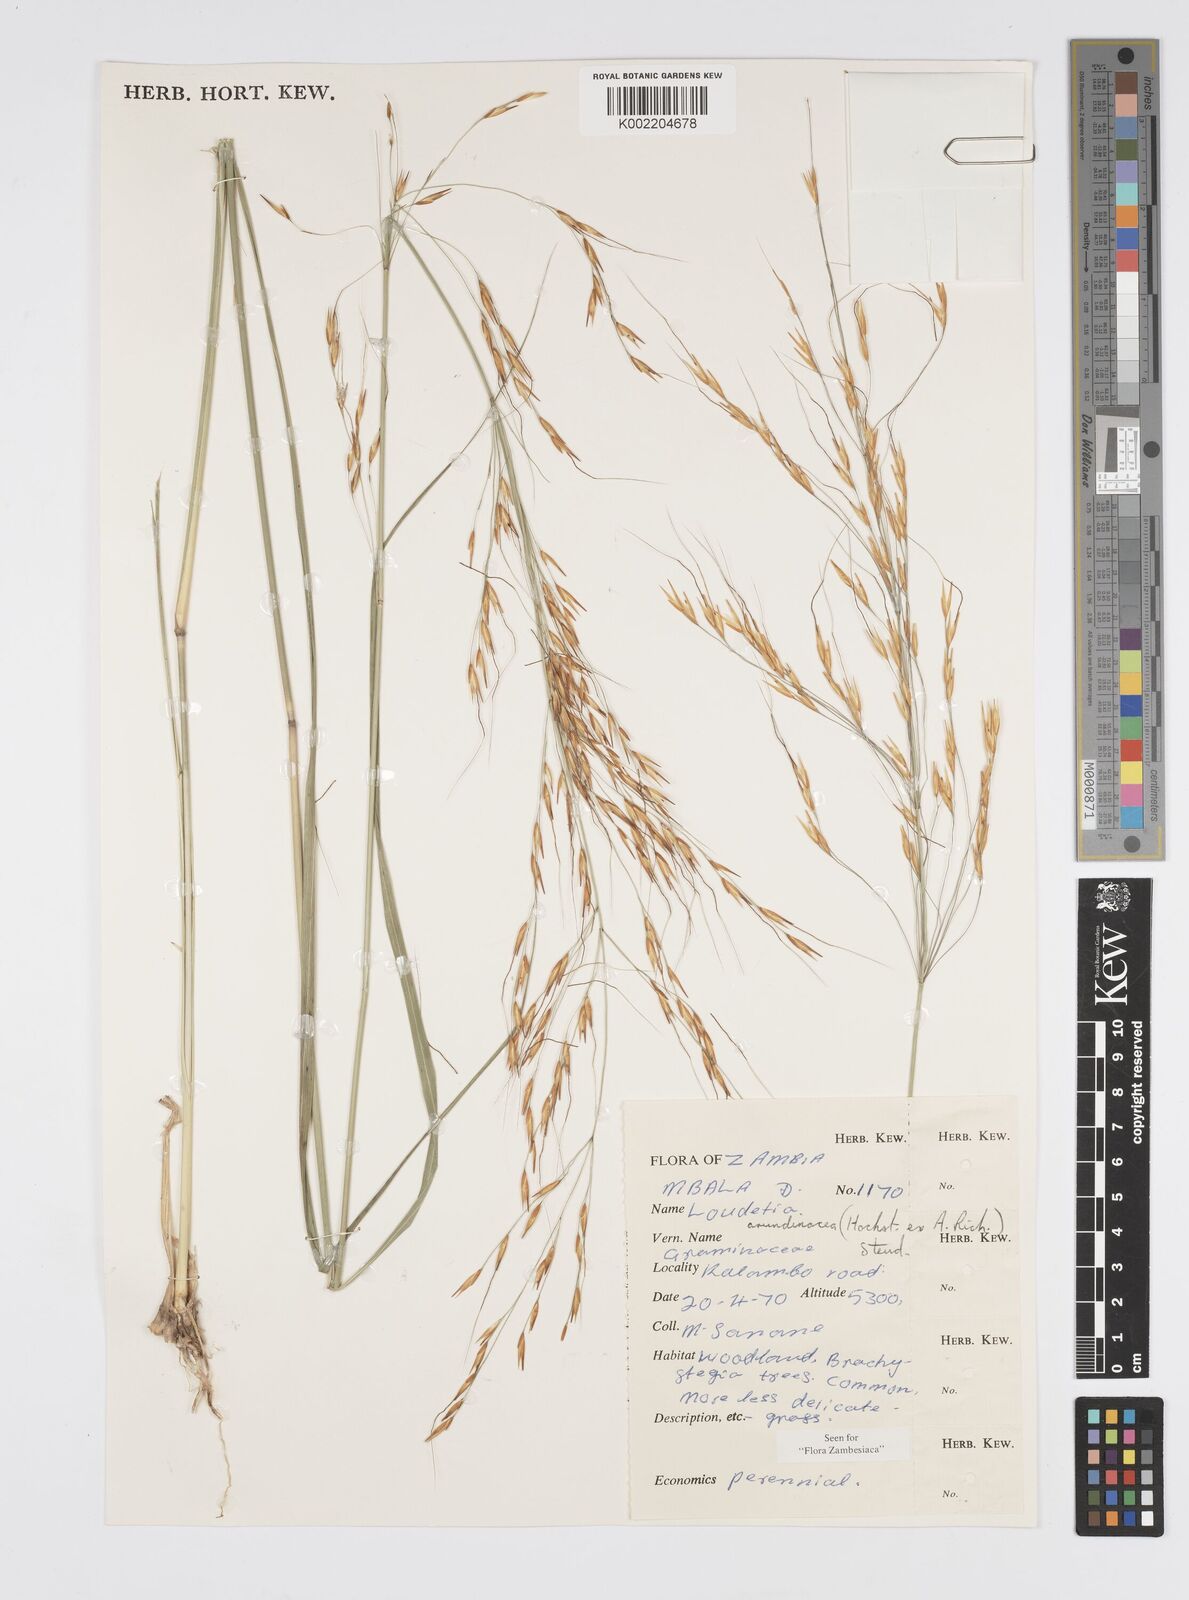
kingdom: Plantae
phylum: Tracheophyta
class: Liliopsida
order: Poales
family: Poaceae
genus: Loudetia
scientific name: Loudetia arundinacea
